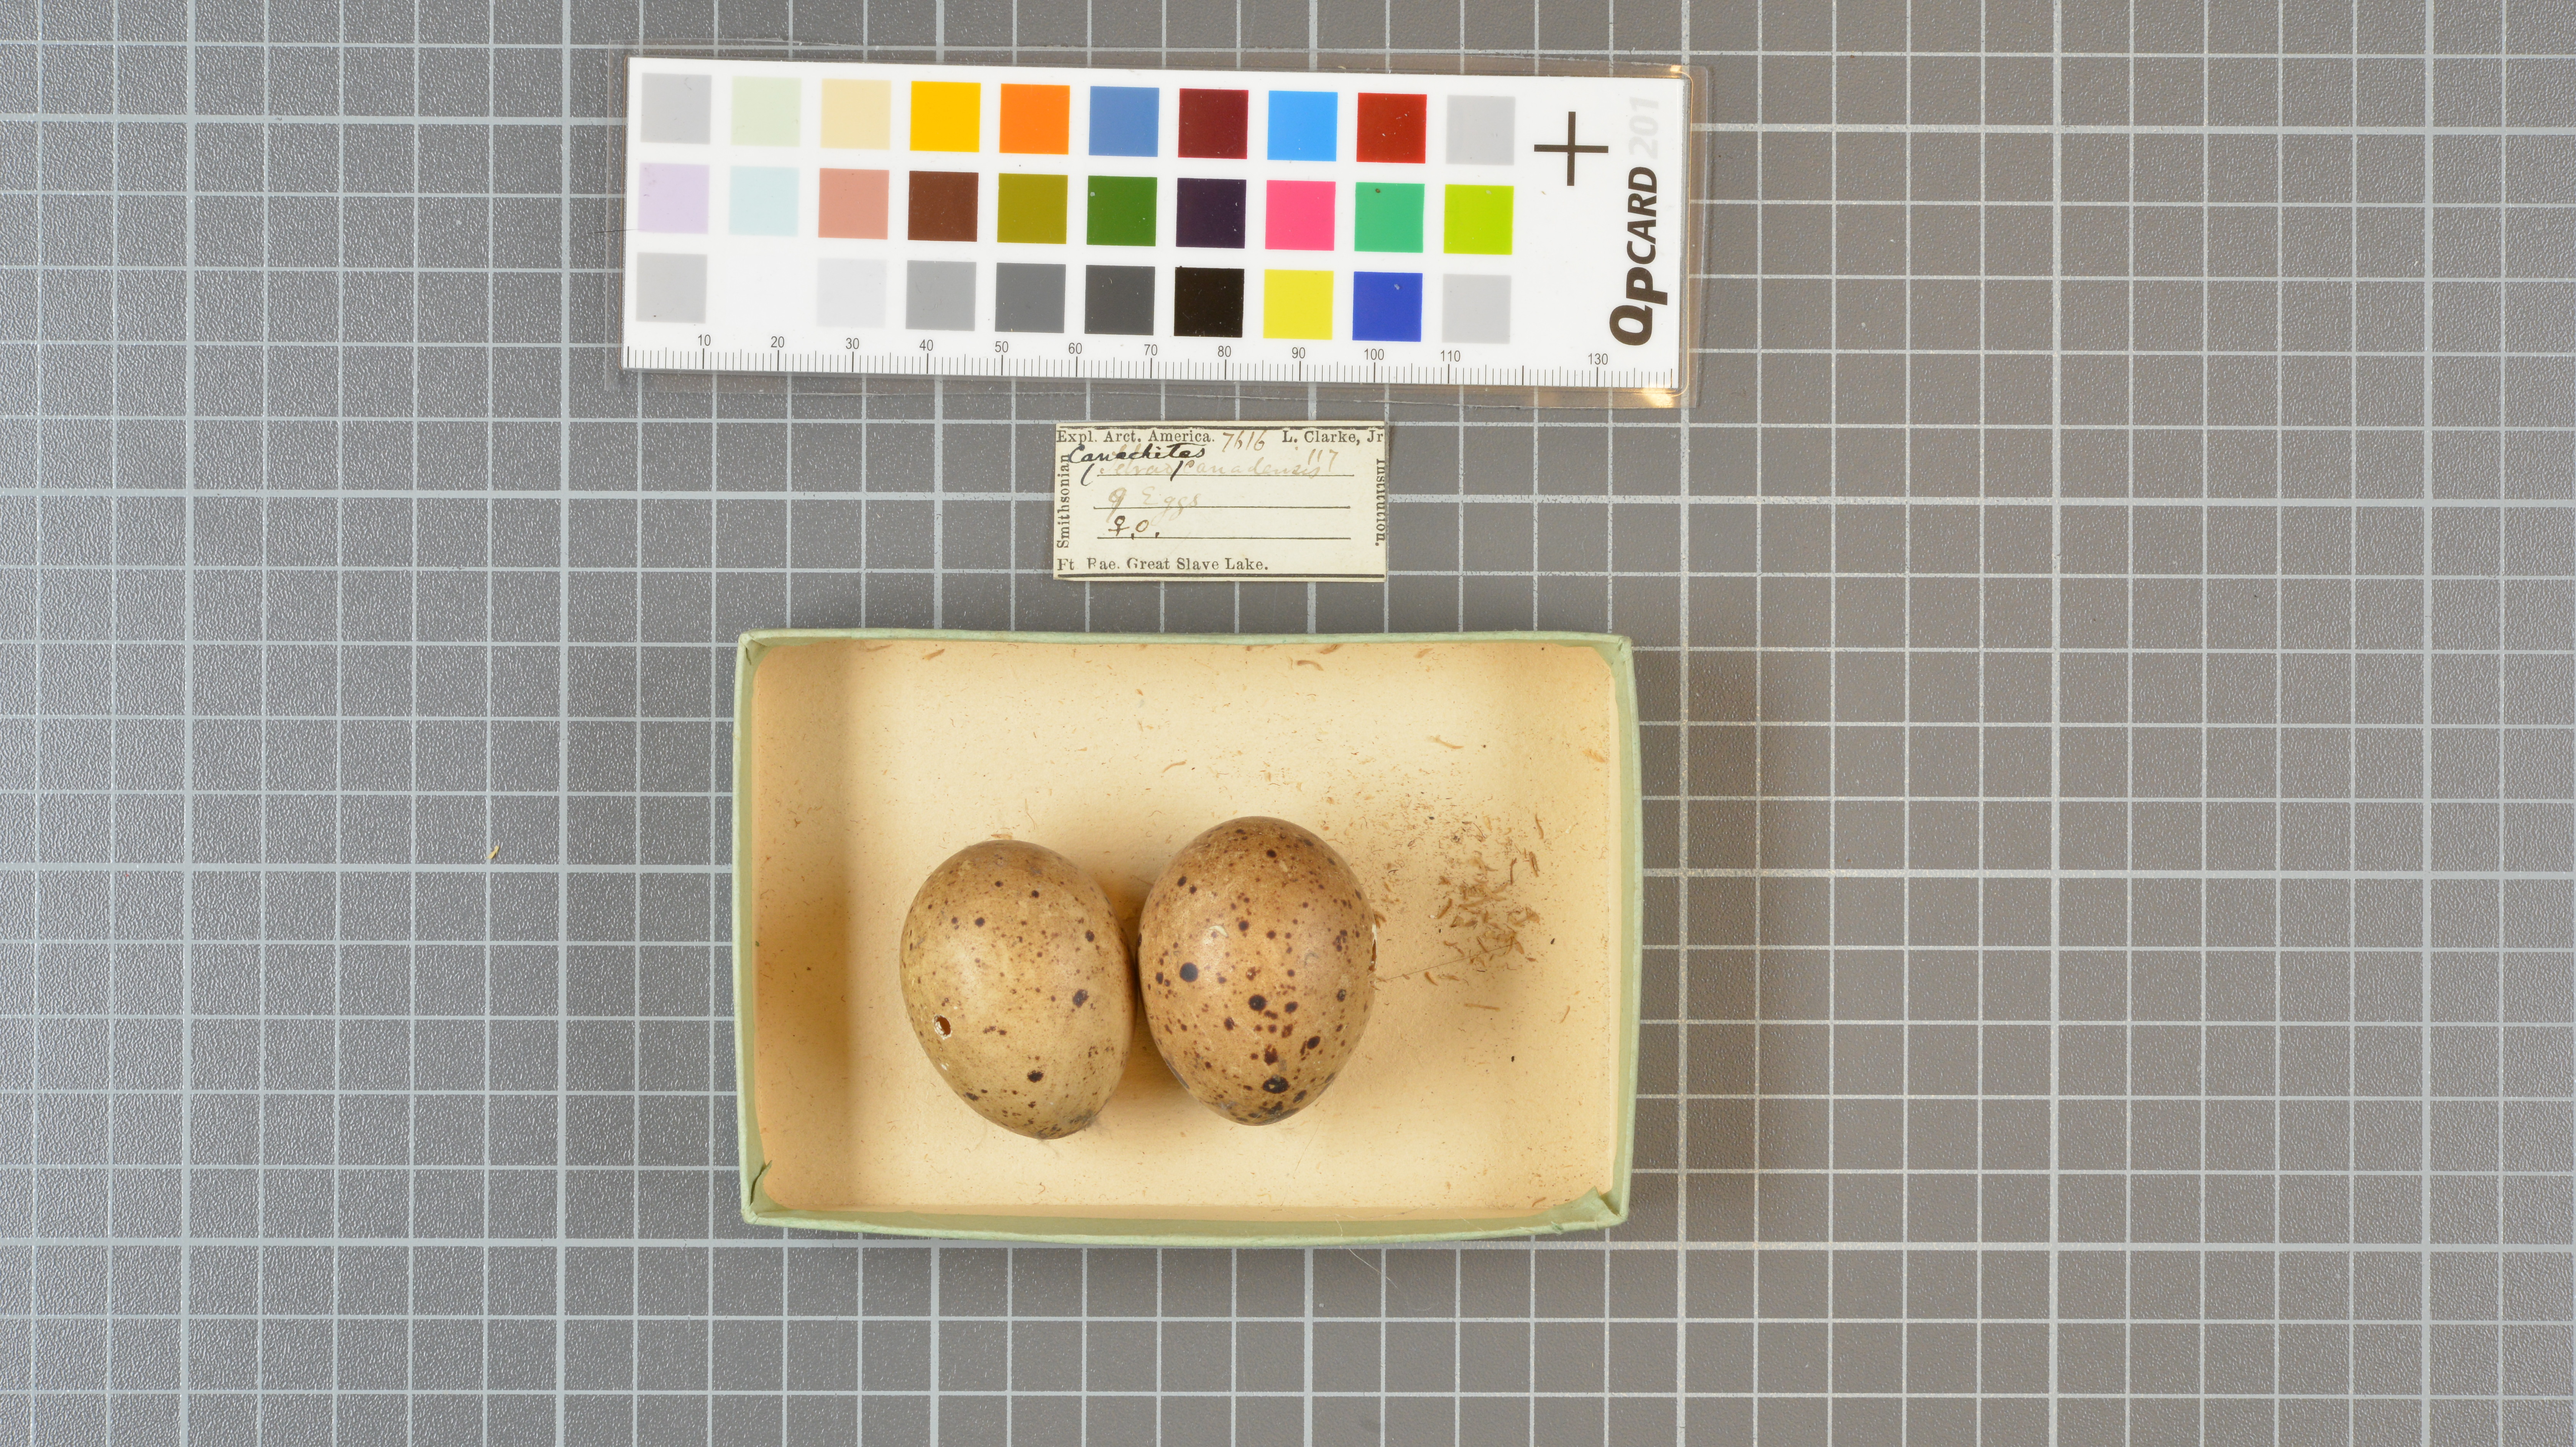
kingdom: Animalia
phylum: Chordata
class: Aves
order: Galliformes
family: Phasianidae
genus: Canachites
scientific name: Canachites canadensis
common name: Spruce grouse
